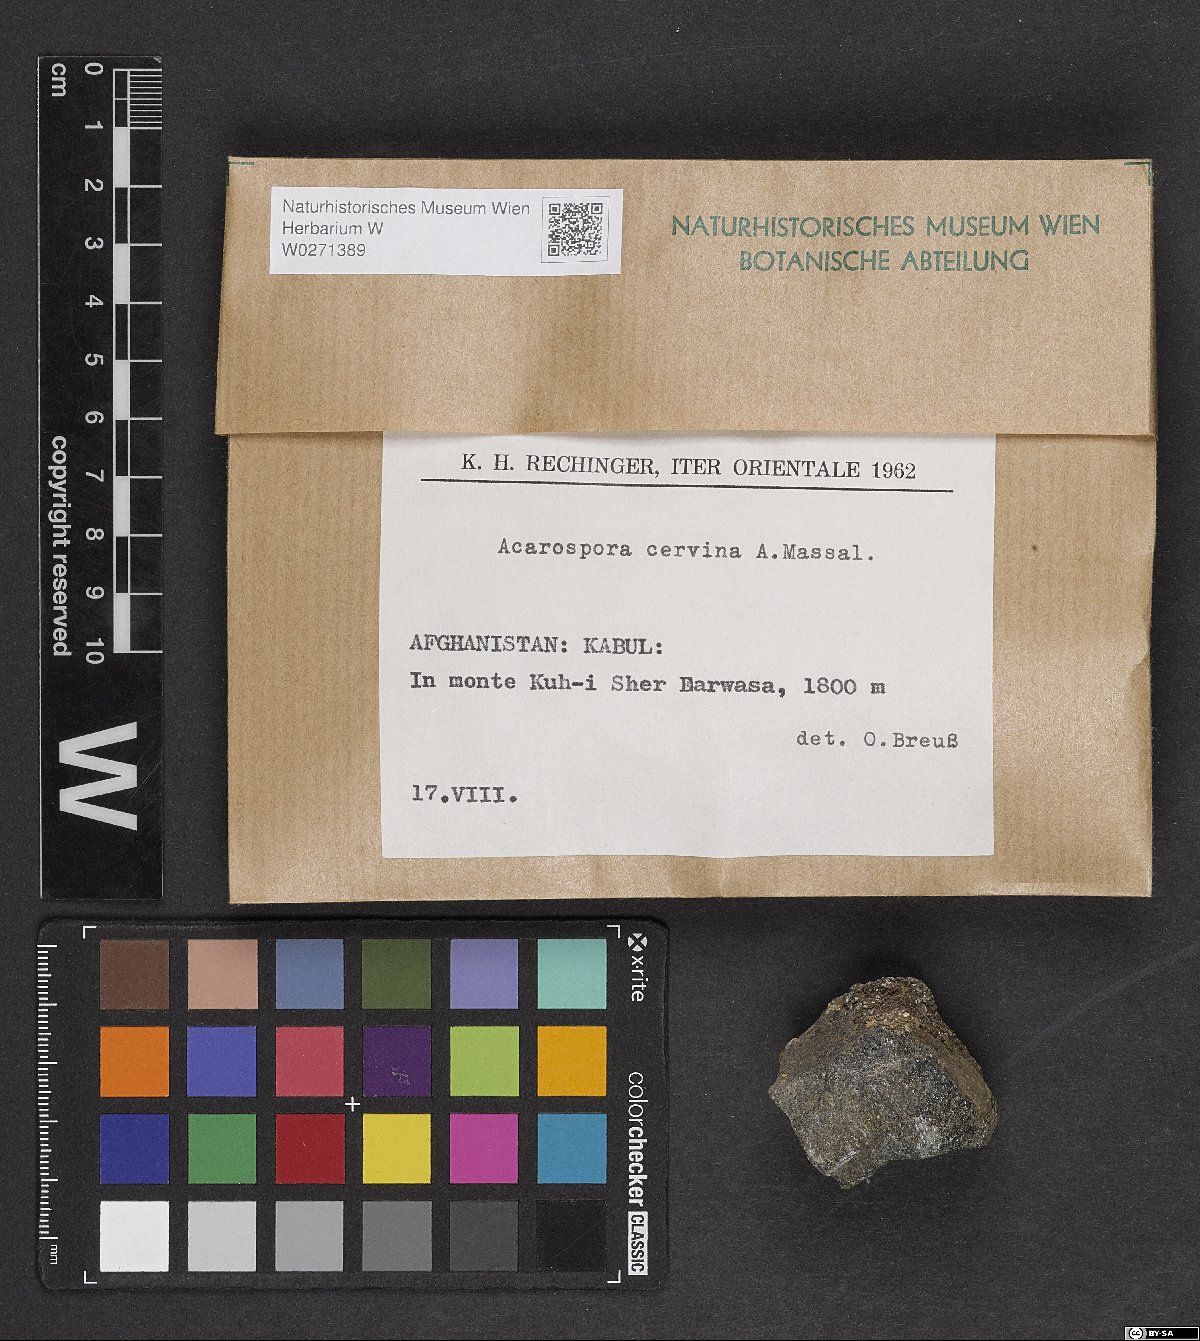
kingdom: Fungi
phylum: Ascomycota
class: Lecanoromycetes
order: Acarosporales
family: Acarosporaceae
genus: Acarospora
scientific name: Acarospora cervina
